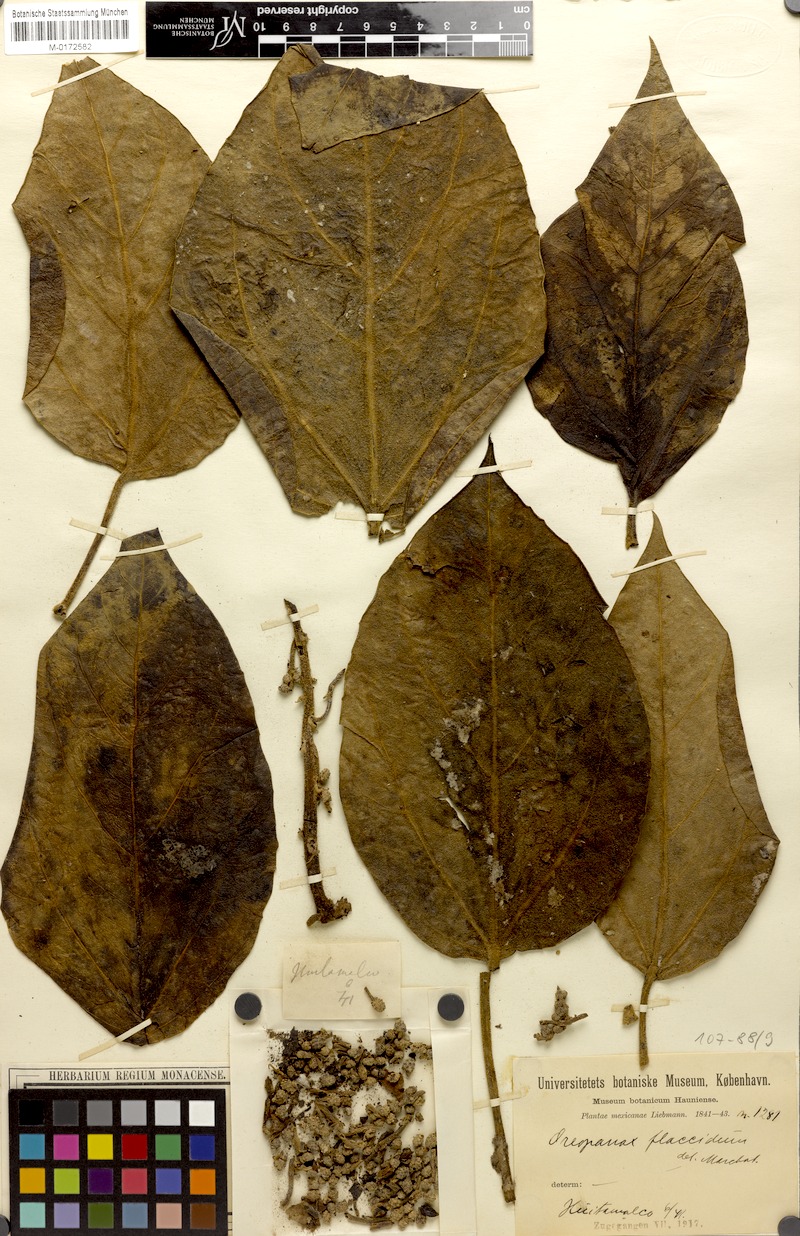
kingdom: Plantae
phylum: Tracheophyta
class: Magnoliopsida
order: Apiales
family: Araliaceae
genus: Oreopanax
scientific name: Oreopanax flaccidus
